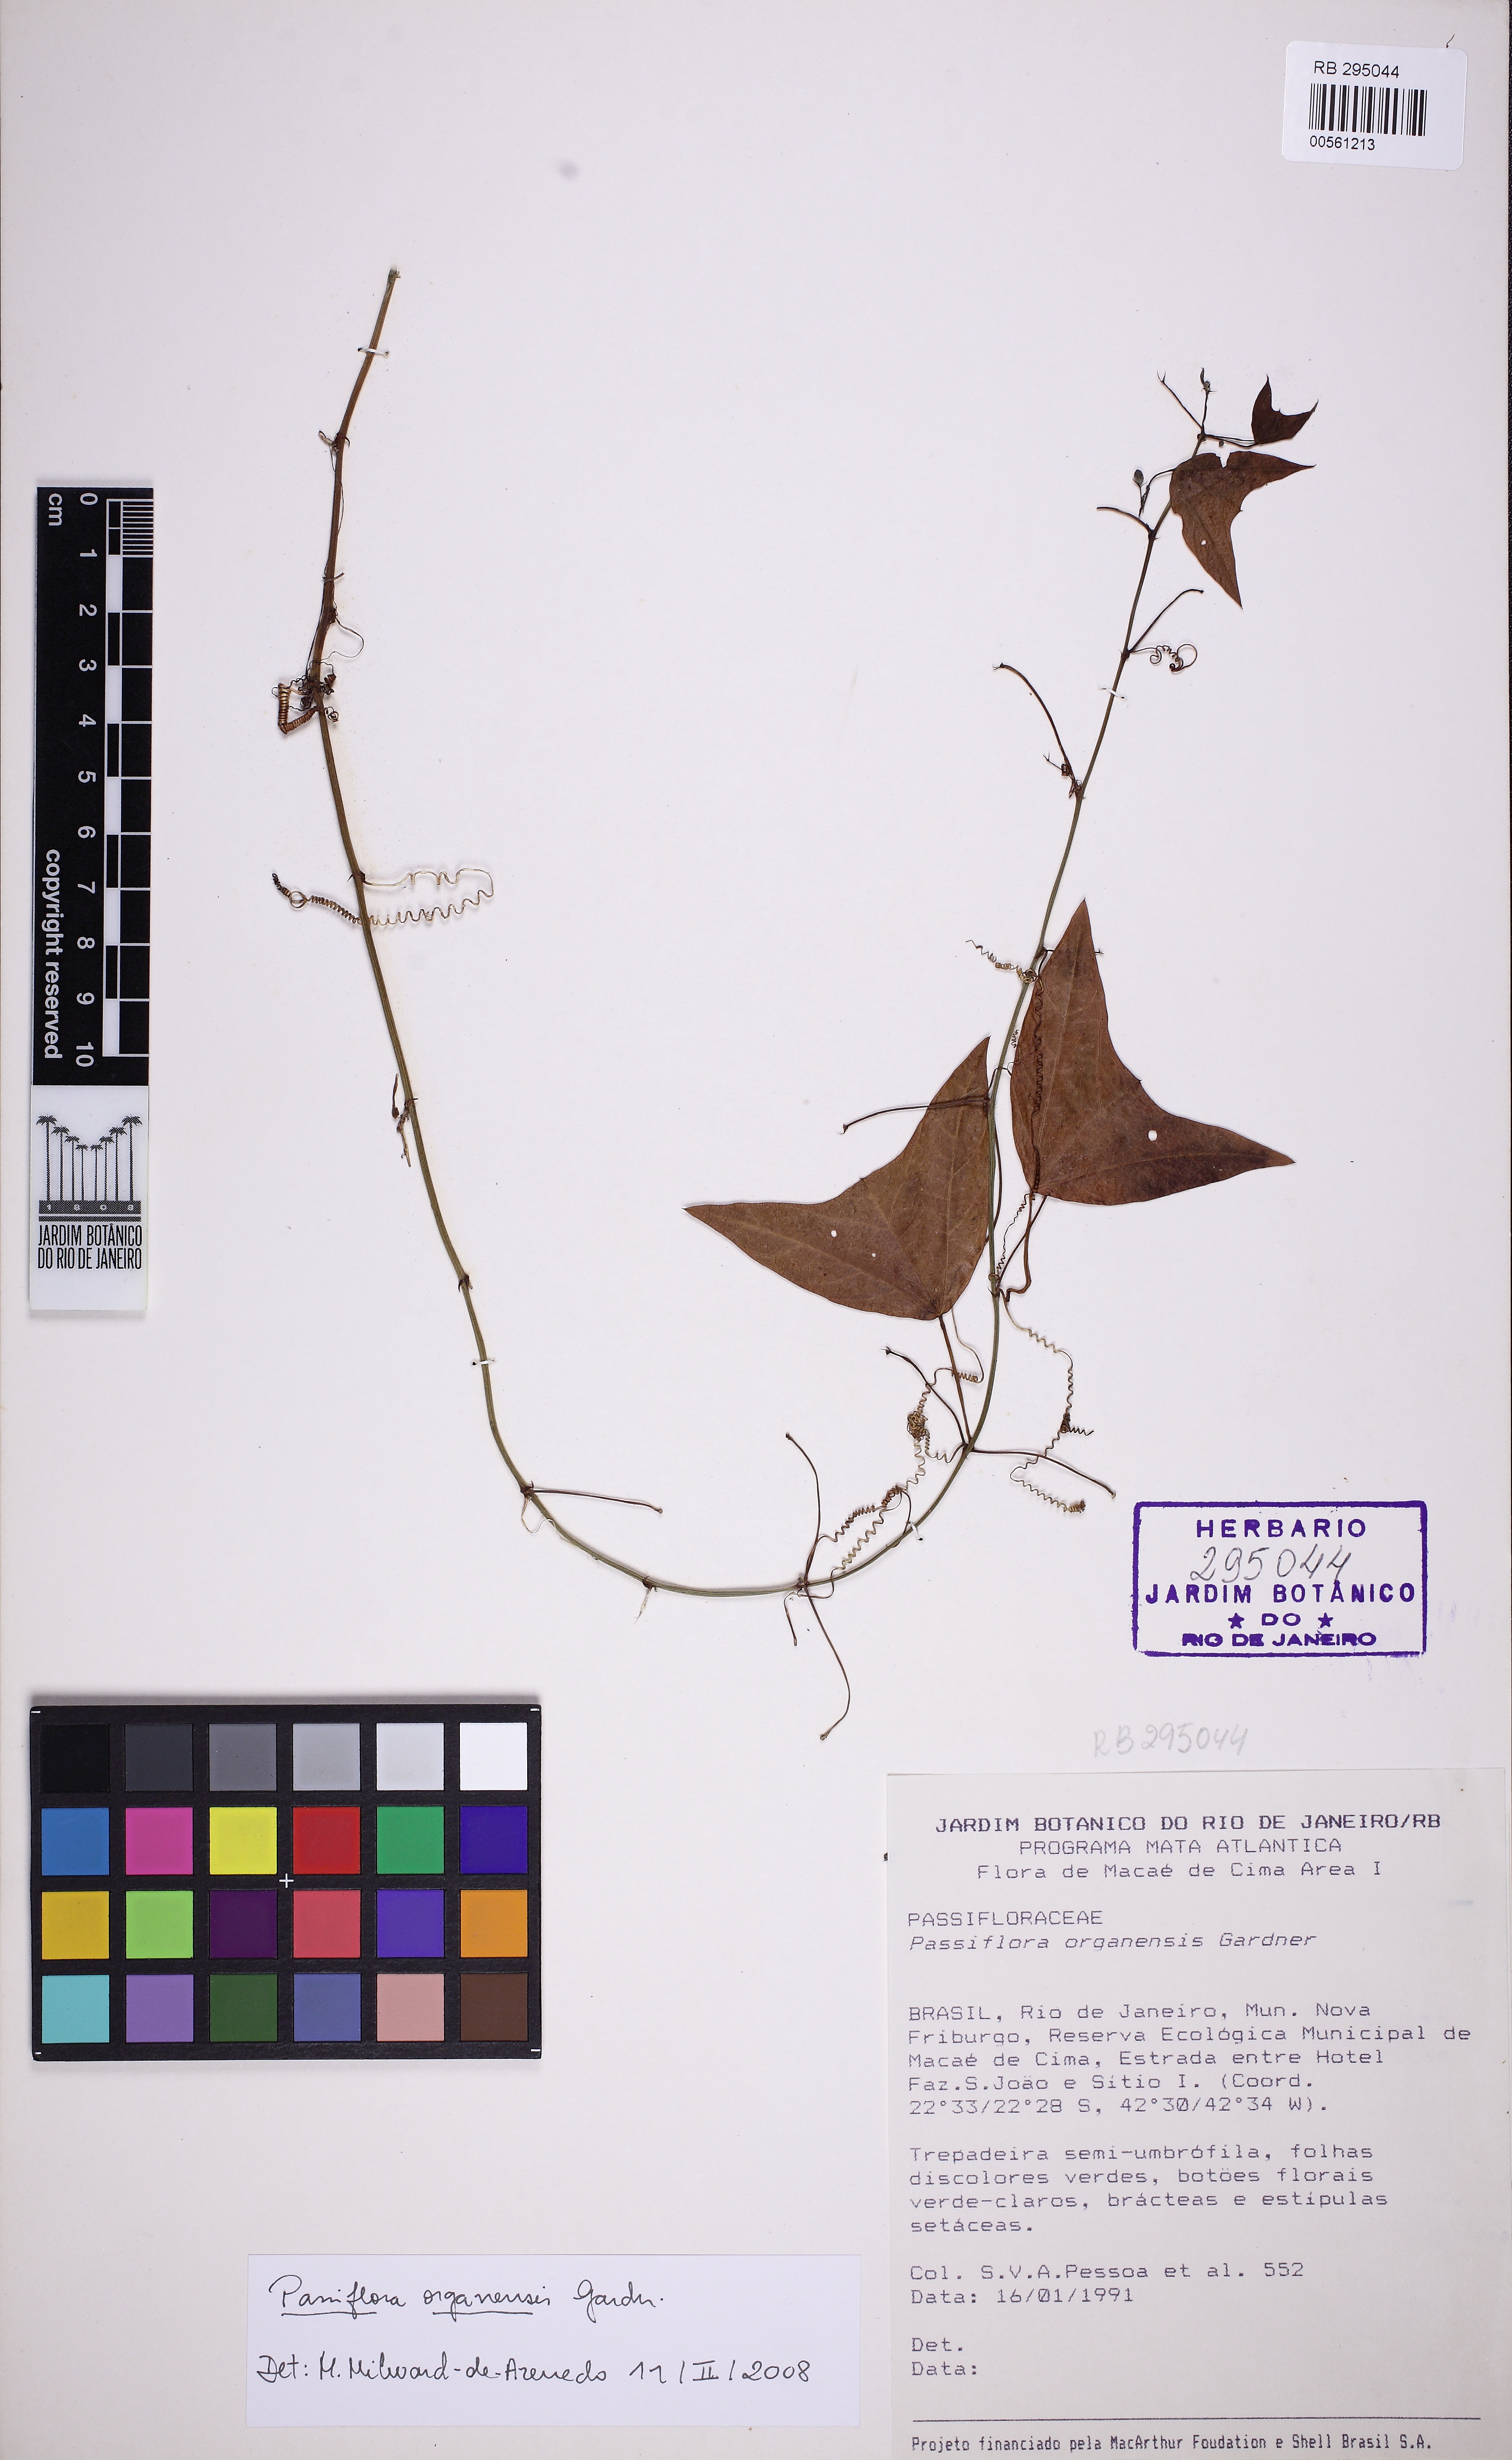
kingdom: Plantae
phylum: Tracheophyta
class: Magnoliopsida
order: Malpighiales
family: Passifloraceae
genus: Passiflora
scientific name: Passiflora porophylla
